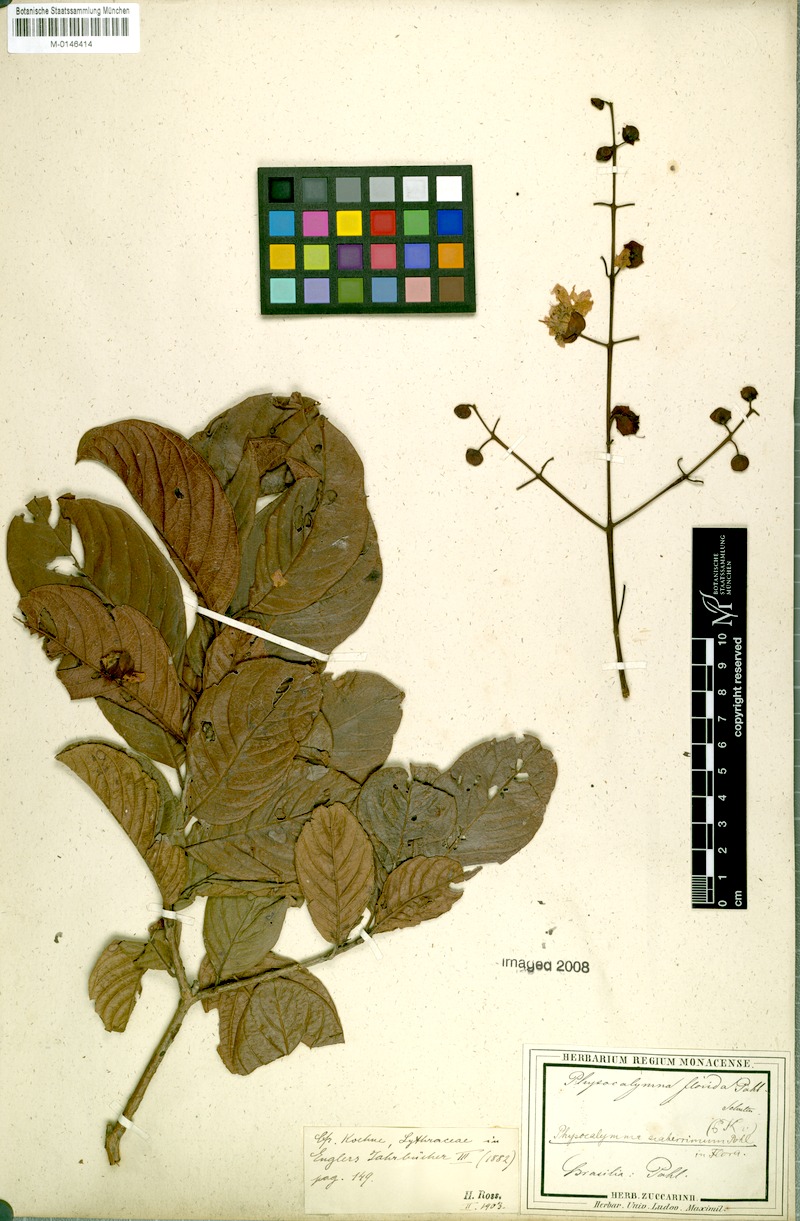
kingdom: Plantae
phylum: Tracheophyta
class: Magnoliopsida
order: Myrtales
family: Lythraceae
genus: Physocalymma
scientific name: Physocalymma scaberrimum
